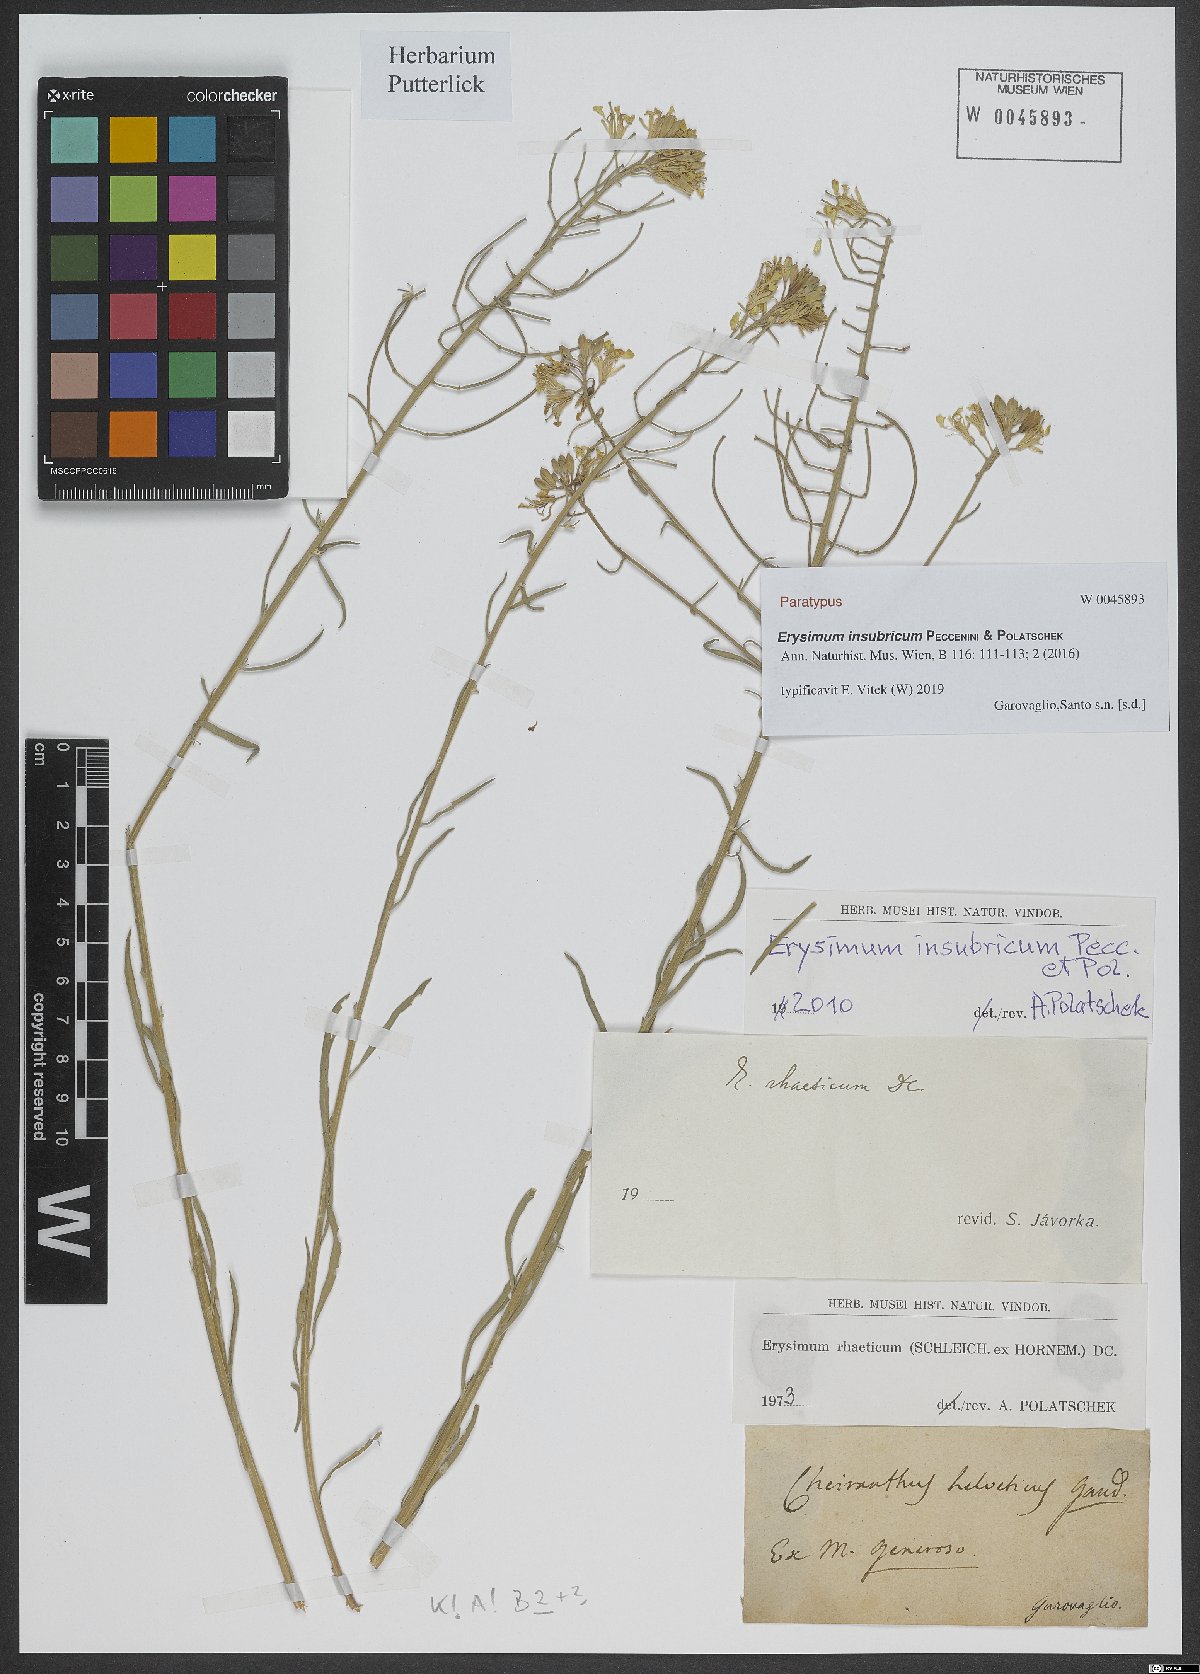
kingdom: Plantae
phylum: Tracheophyta
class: Magnoliopsida
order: Brassicales
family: Brassicaceae
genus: Erysimum
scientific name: Erysimum insubricum
